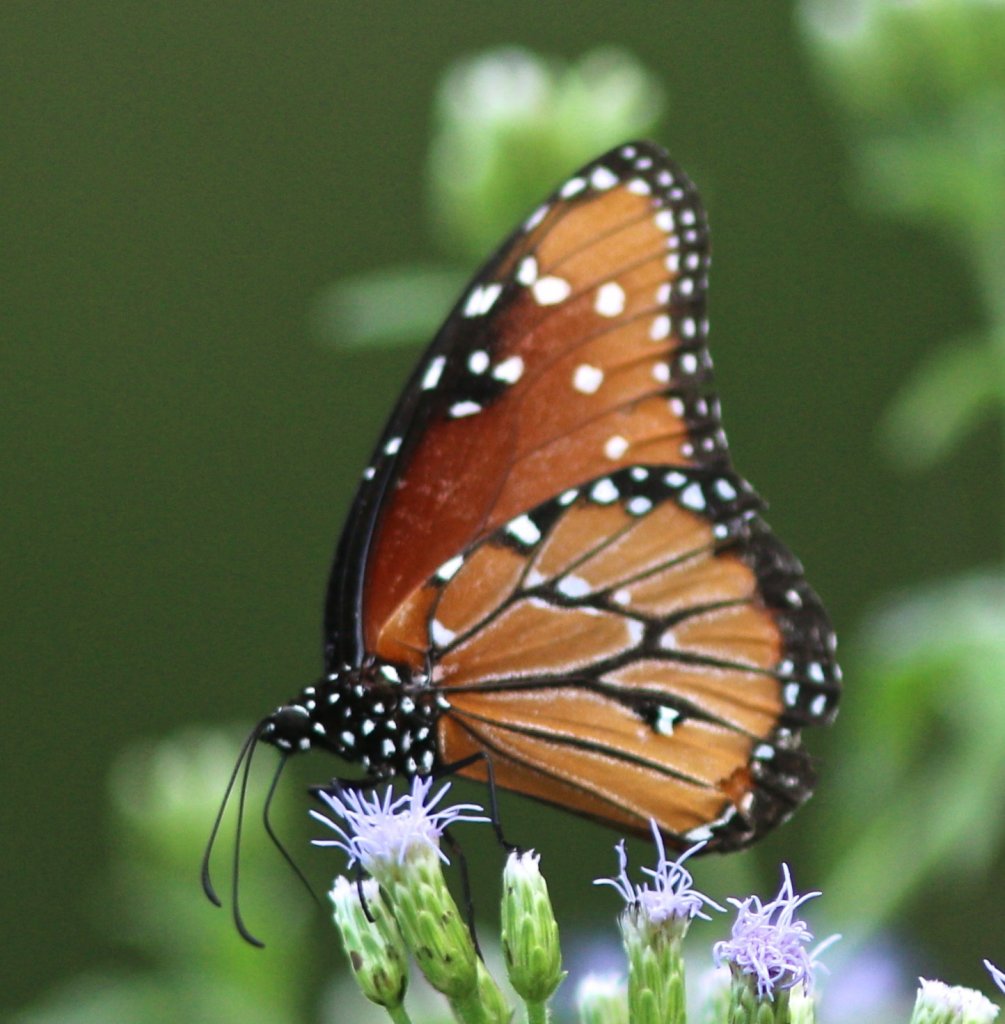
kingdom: Animalia
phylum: Arthropoda
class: Insecta
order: Lepidoptera
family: Nymphalidae
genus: Danaus
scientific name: Danaus gilippus
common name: Queen
